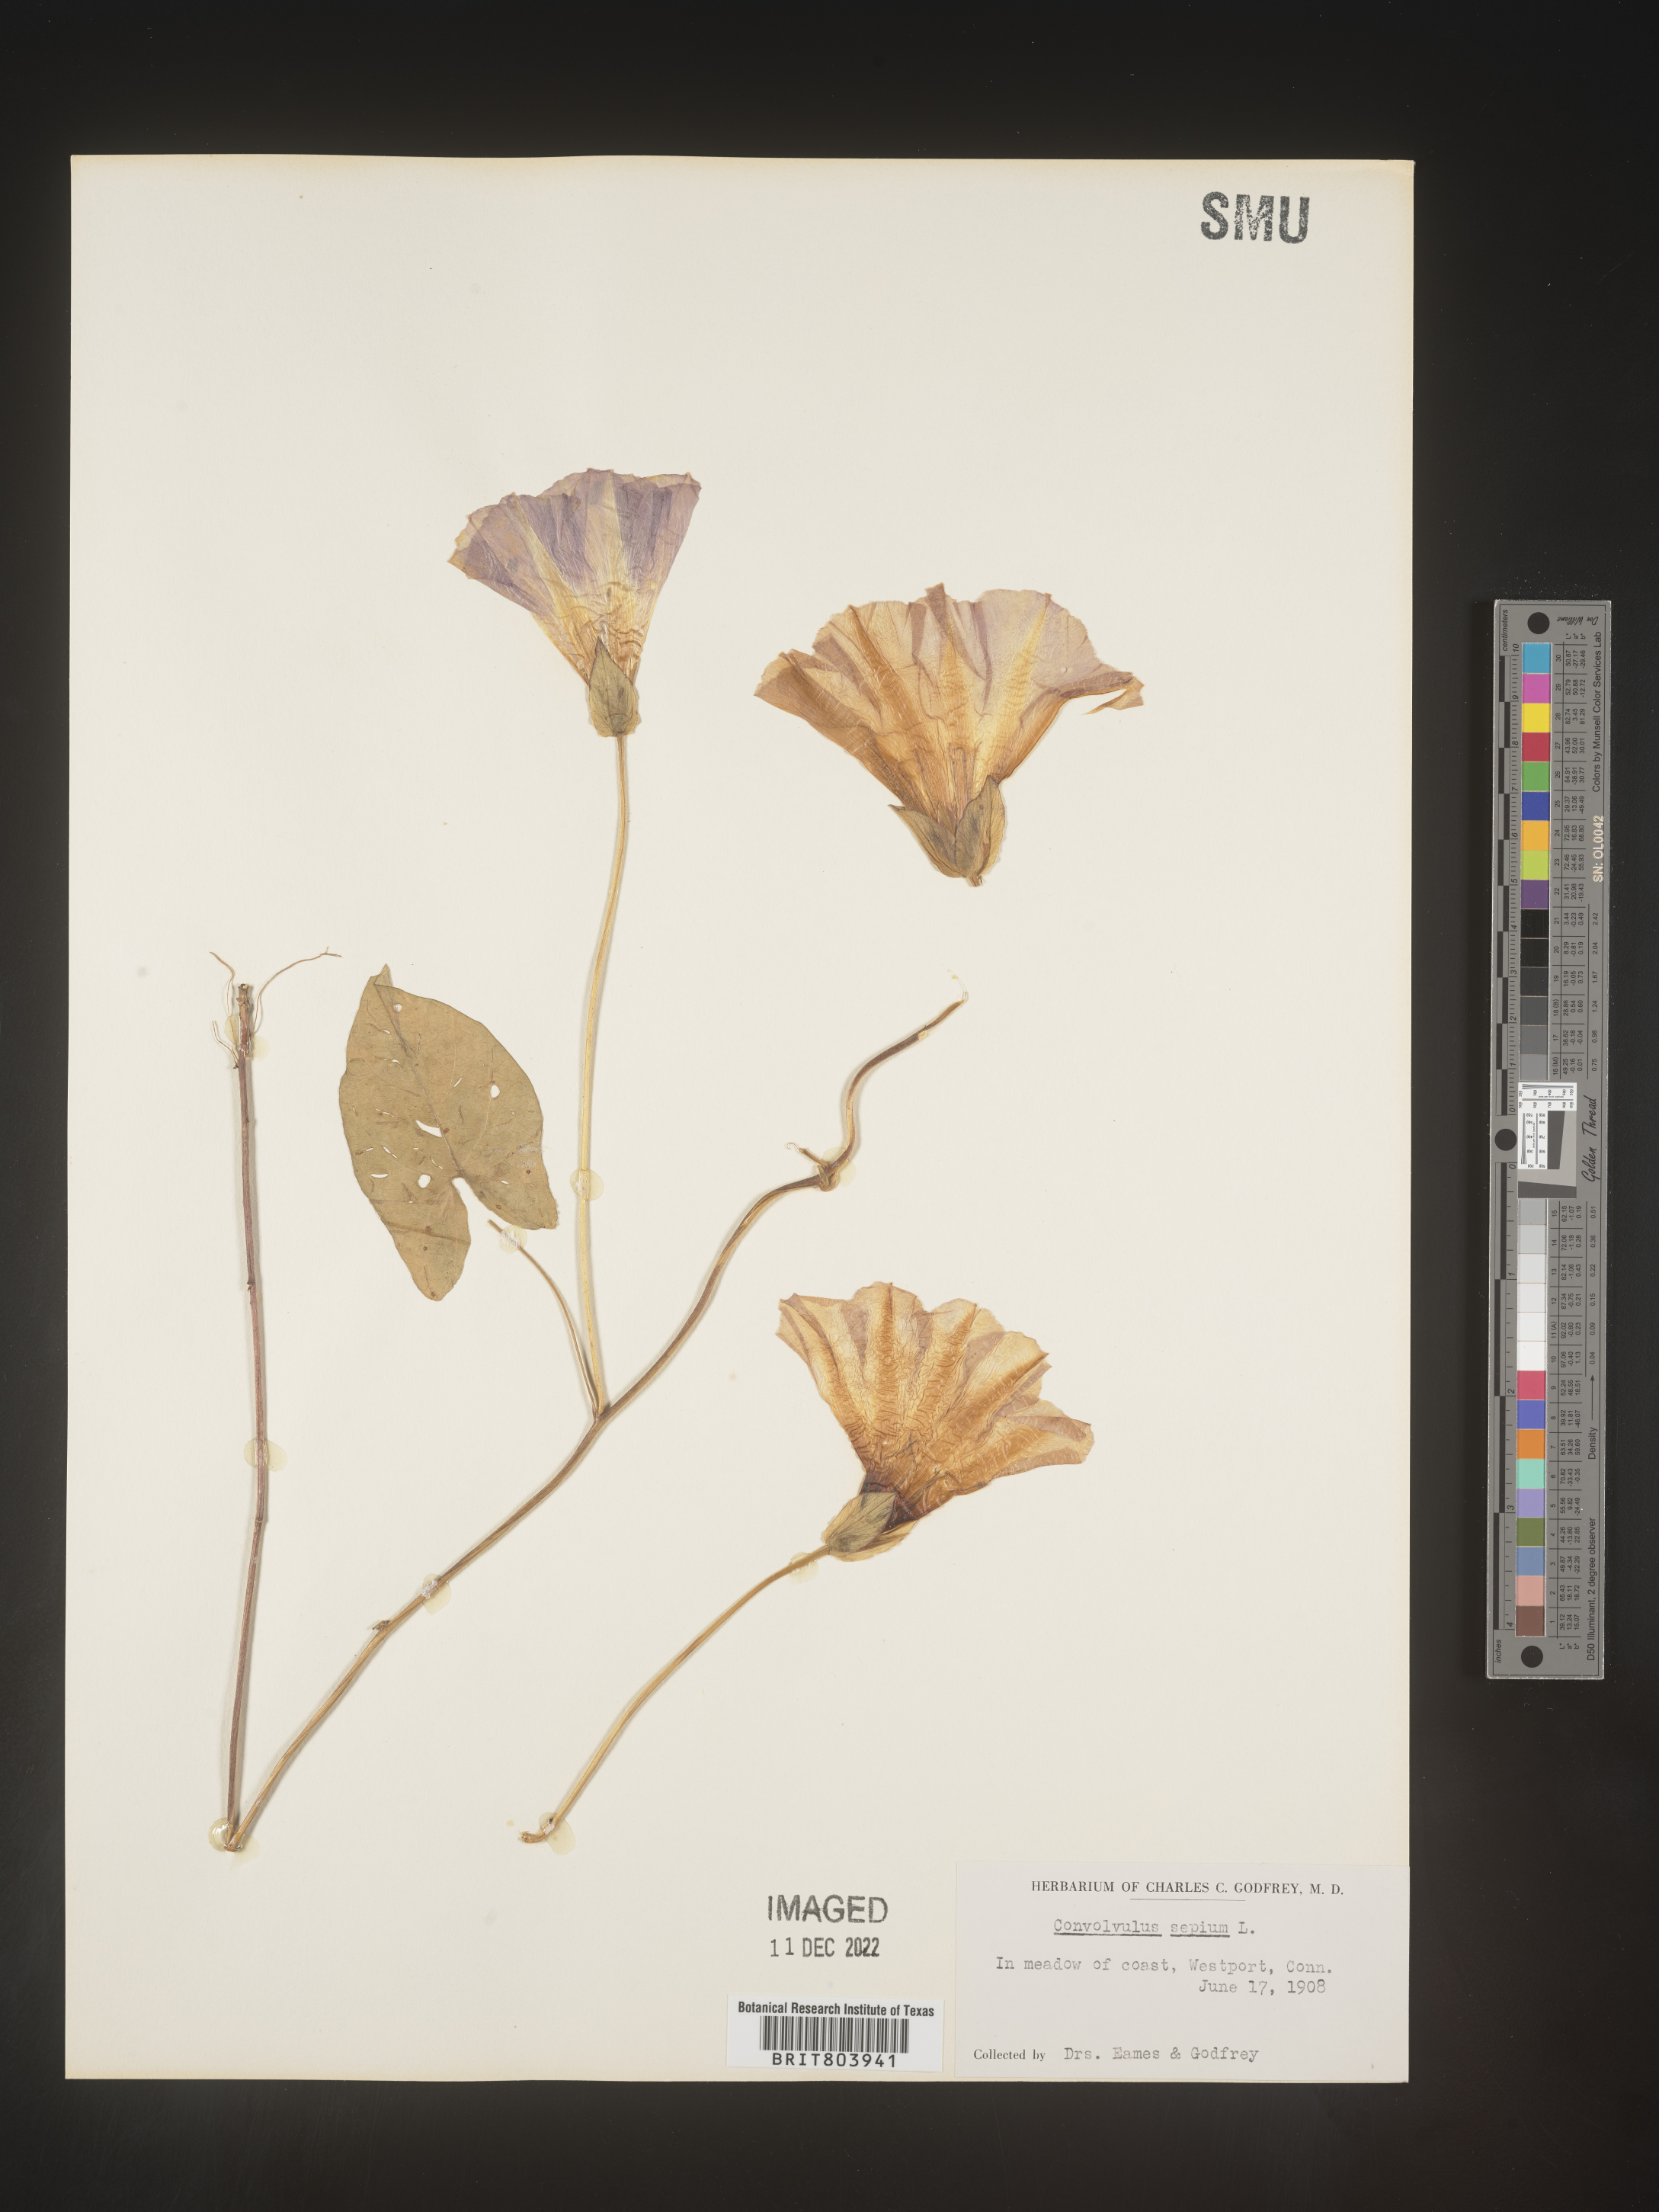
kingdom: Plantae
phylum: Tracheophyta
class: Magnoliopsida
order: Solanales
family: Convolvulaceae
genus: Calystegia
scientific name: Calystegia sepium
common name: Hedge bindweed
